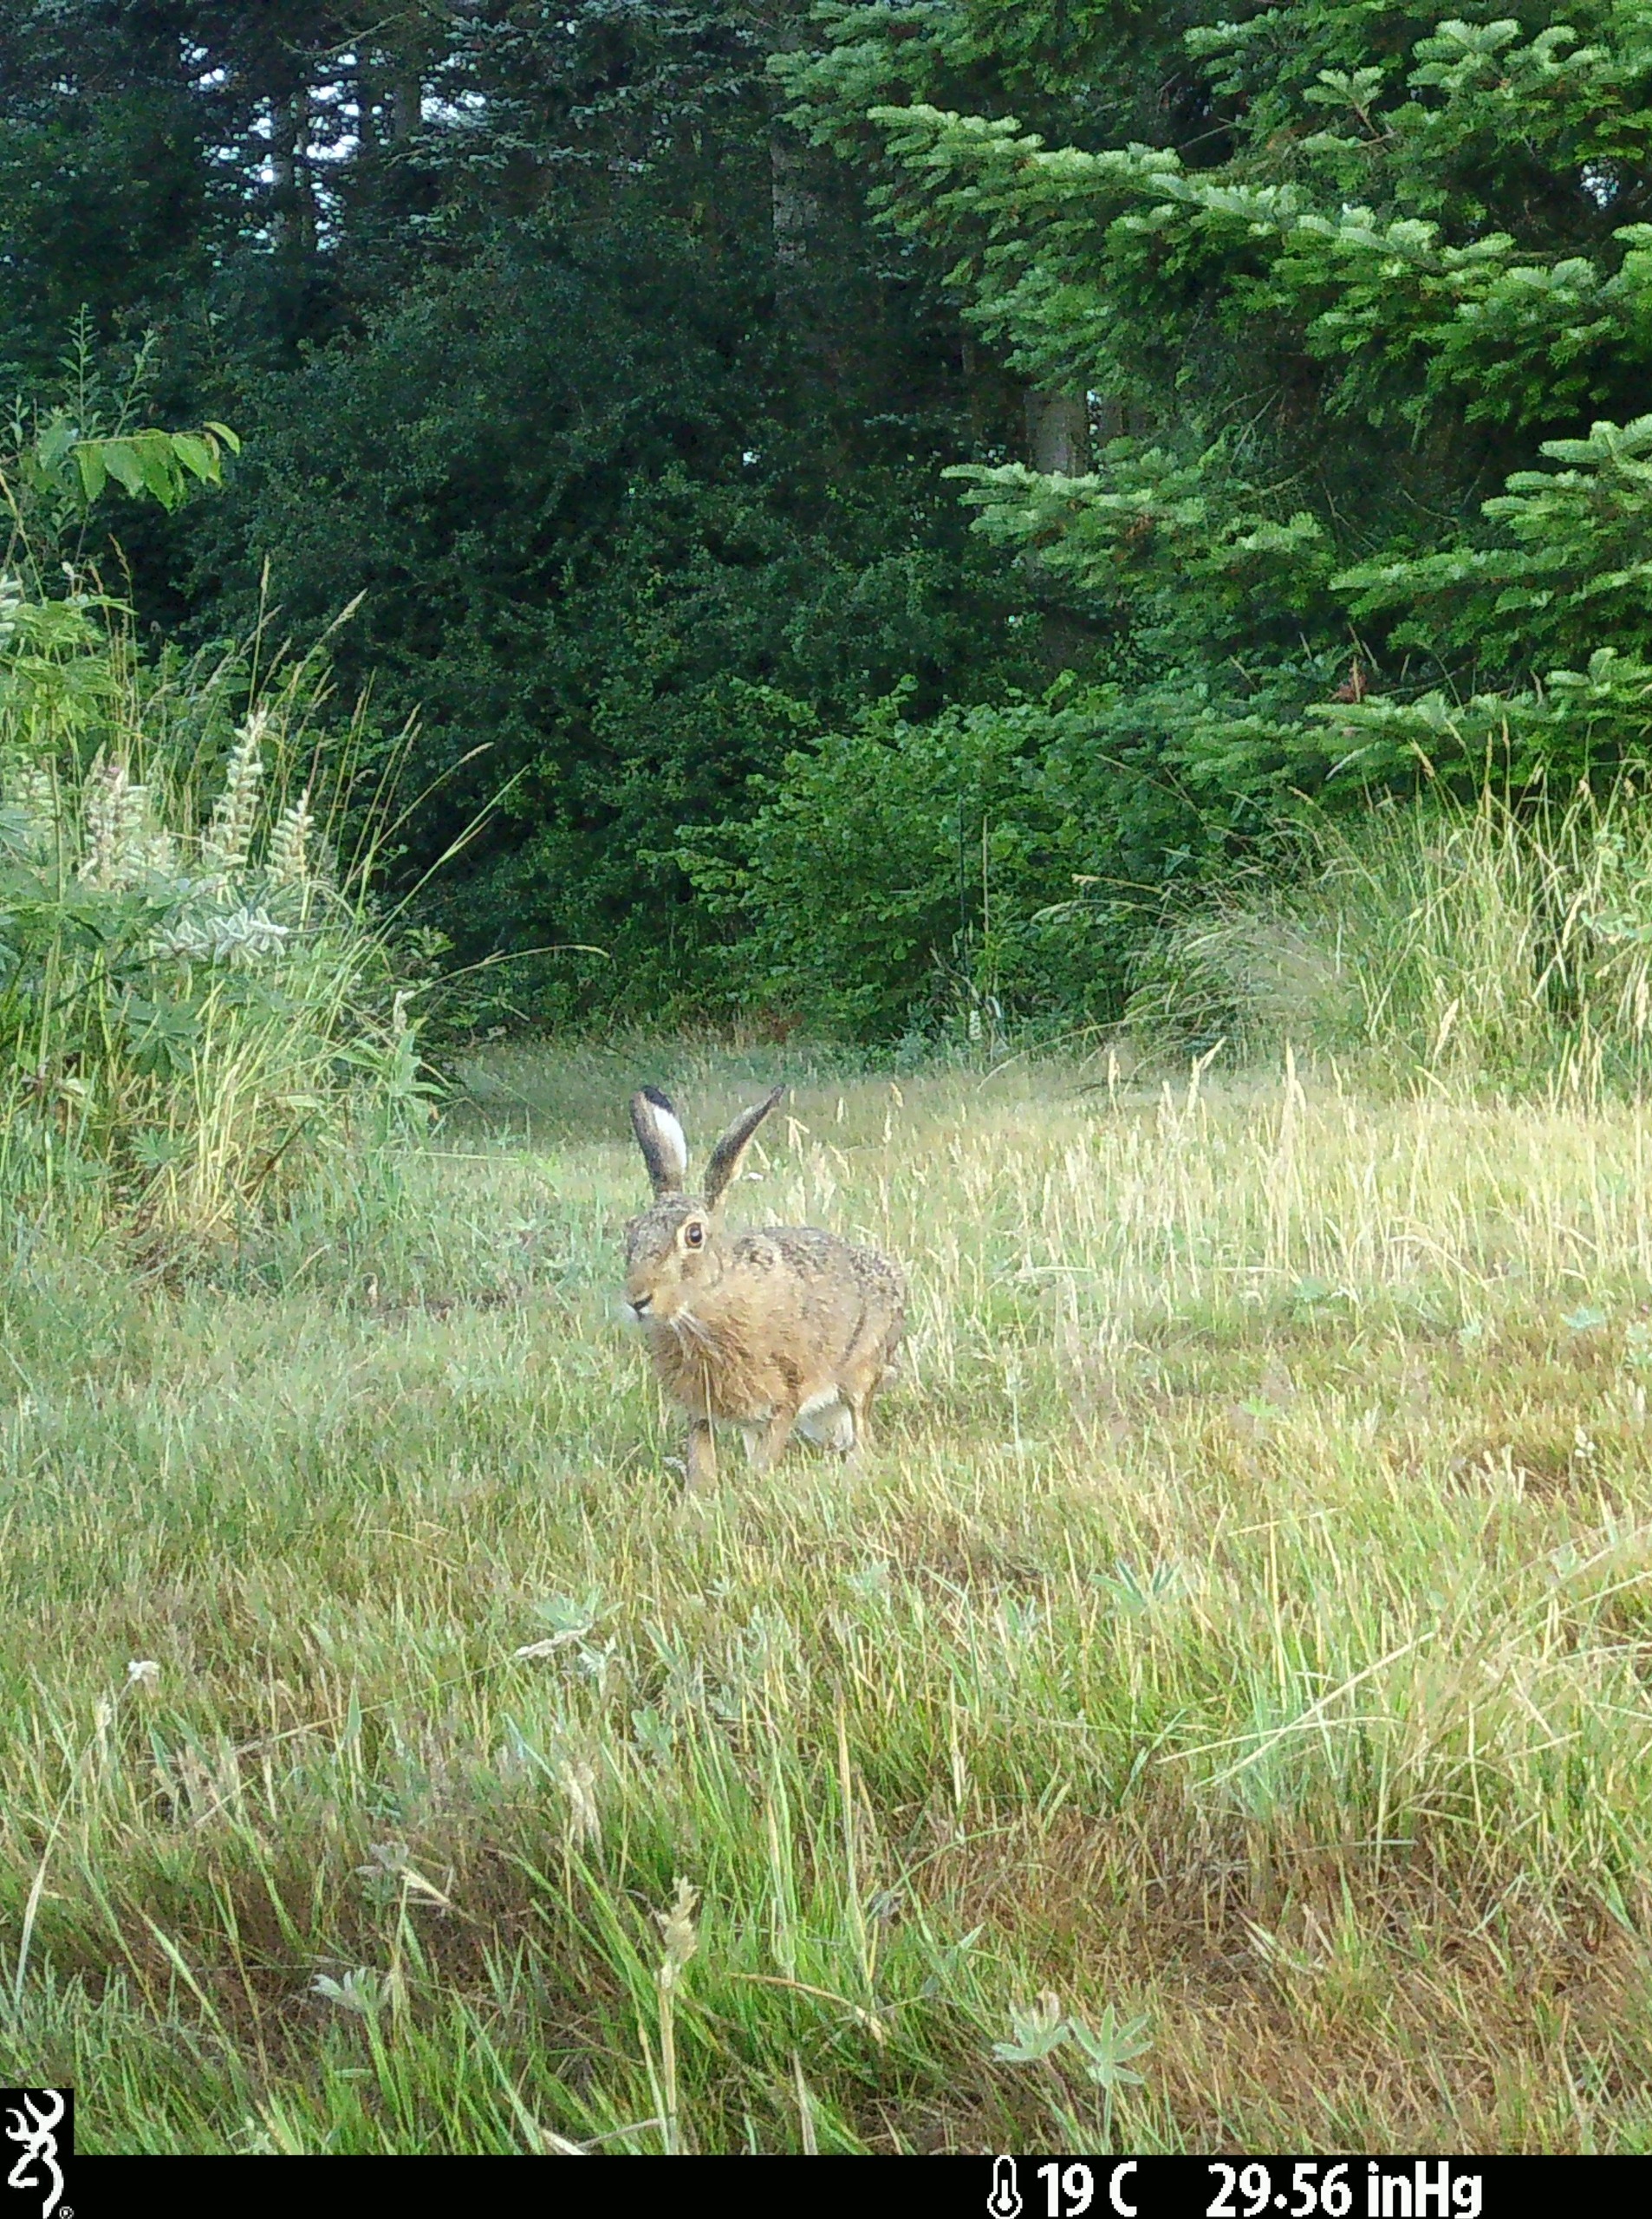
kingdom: Animalia
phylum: Chordata
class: Mammalia
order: Lagomorpha
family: Leporidae
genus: Lepus
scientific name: Lepus europaeus
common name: Hare
